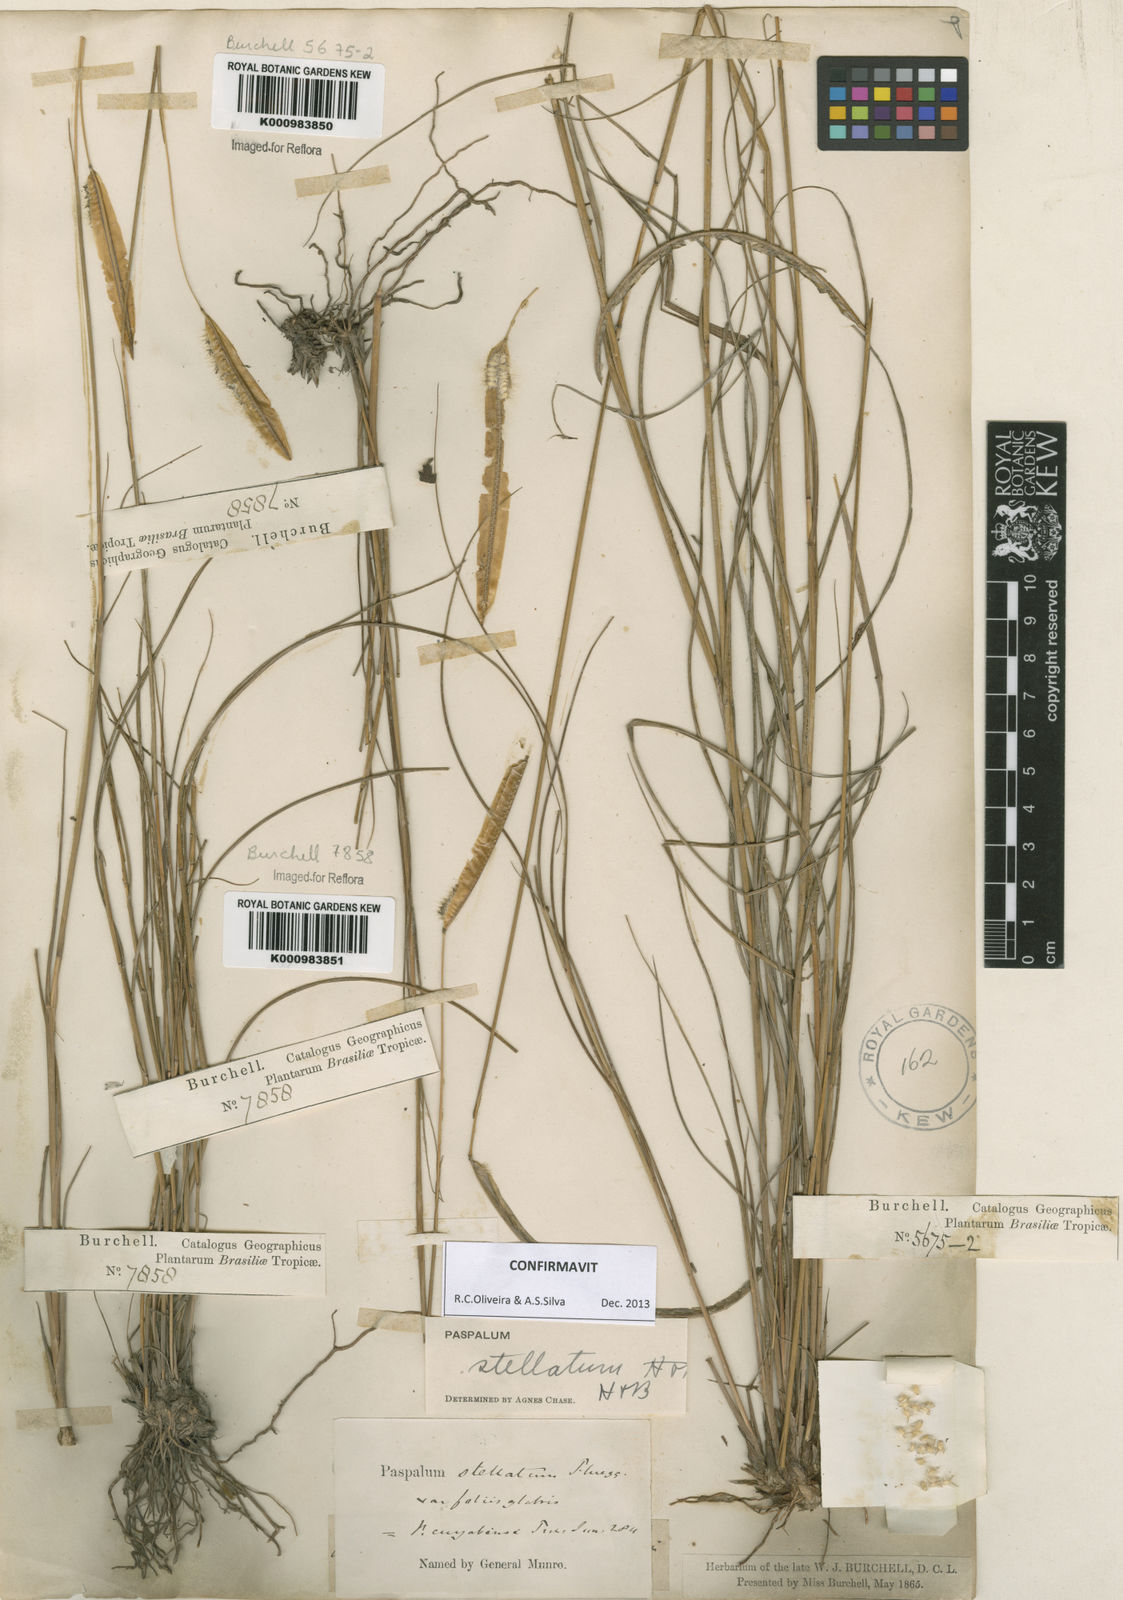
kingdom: Plantae
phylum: Tracheophyta
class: Liliopsida
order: Poales
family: Poaceae
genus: Paspalum
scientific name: Paspalum
